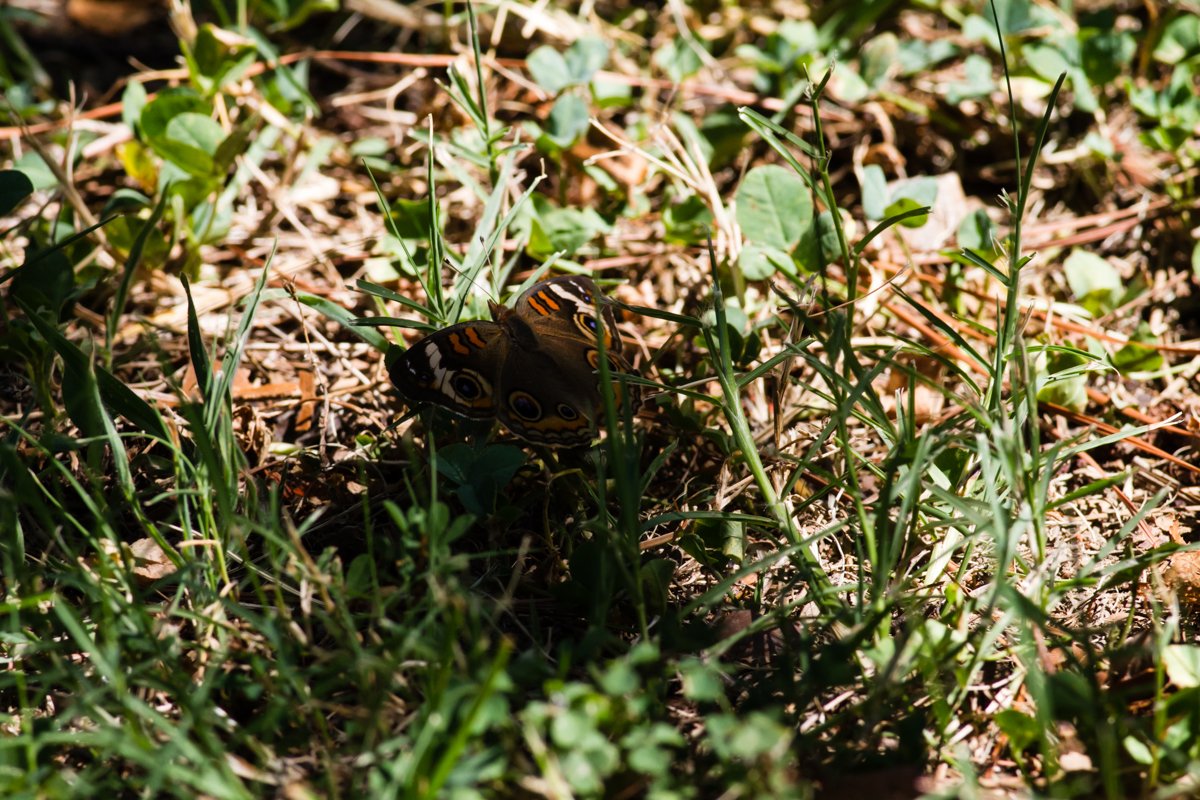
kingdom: Animalia
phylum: Arthropoda
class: Insecta
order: Lepidoptera
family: Nymphalidae
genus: Junonia
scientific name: Junonia coenia
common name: Common Buckeye
